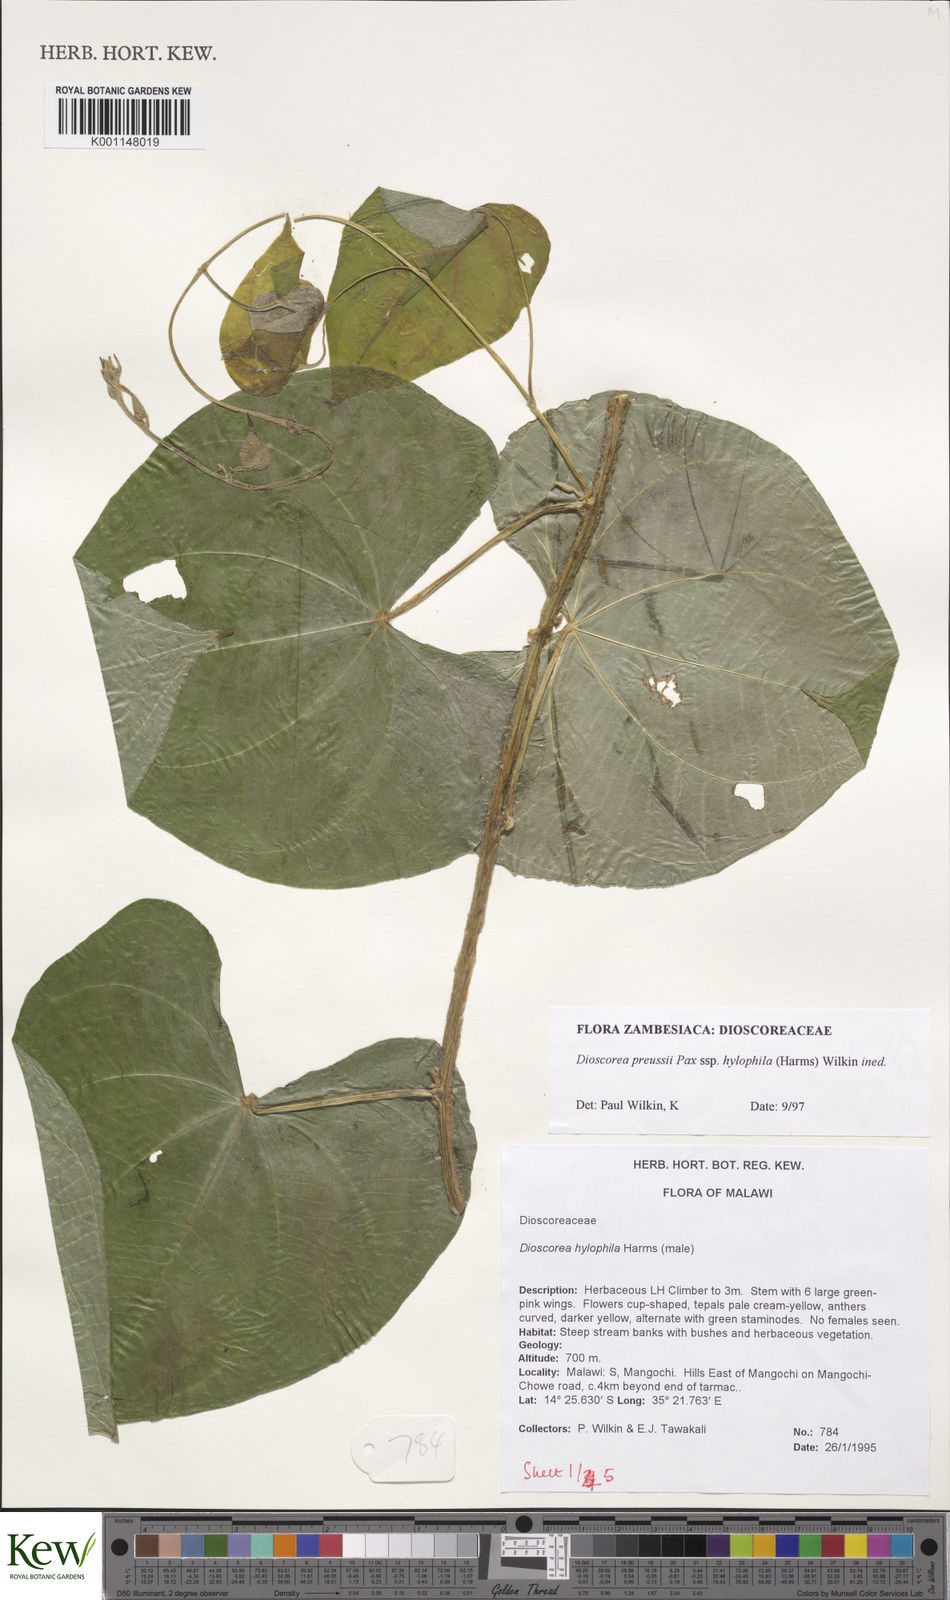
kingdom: Plantae
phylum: Tracheophyta
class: Liliopsida
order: Dioscoreales
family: Dioscoreaceae
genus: Dioscorea
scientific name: Dioscorea preussii
